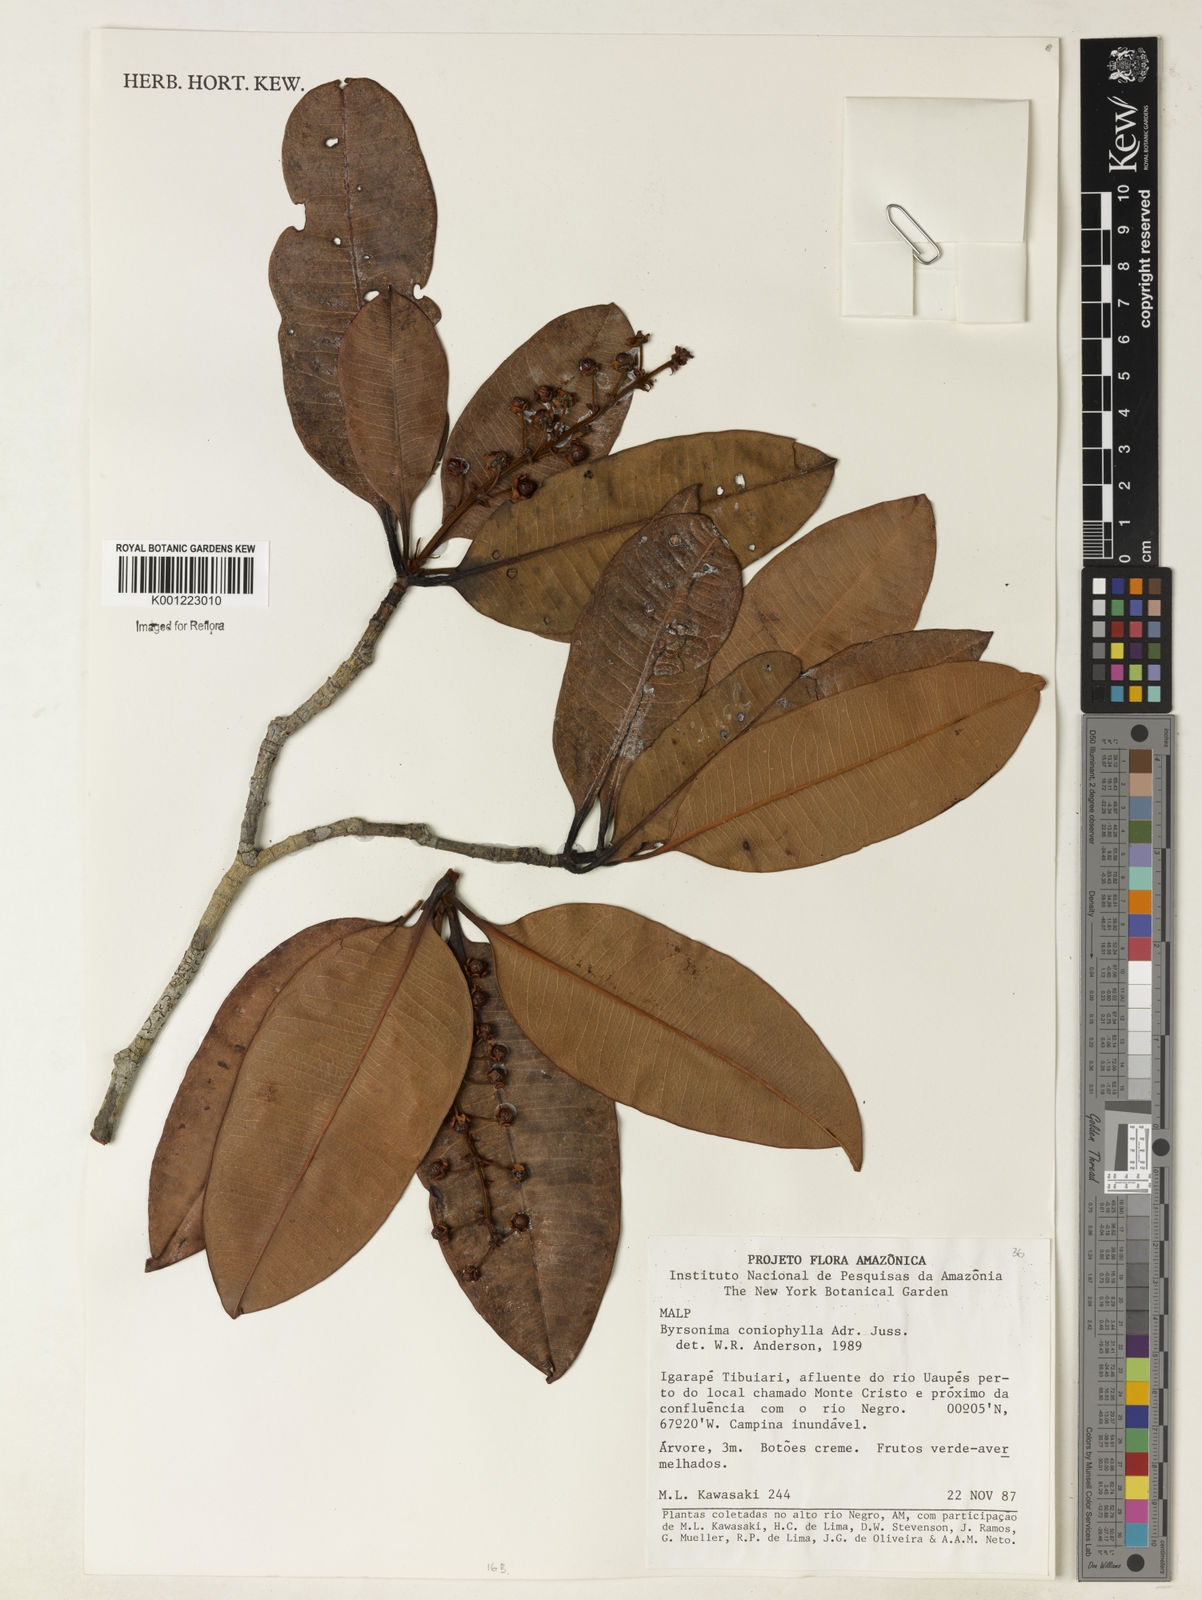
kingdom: Plantae
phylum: Tracheophyta
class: Magnoliopsida
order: Malpighiales
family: Malpighiaceae
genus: Byrsonima
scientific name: Byrsonima coniophylla
